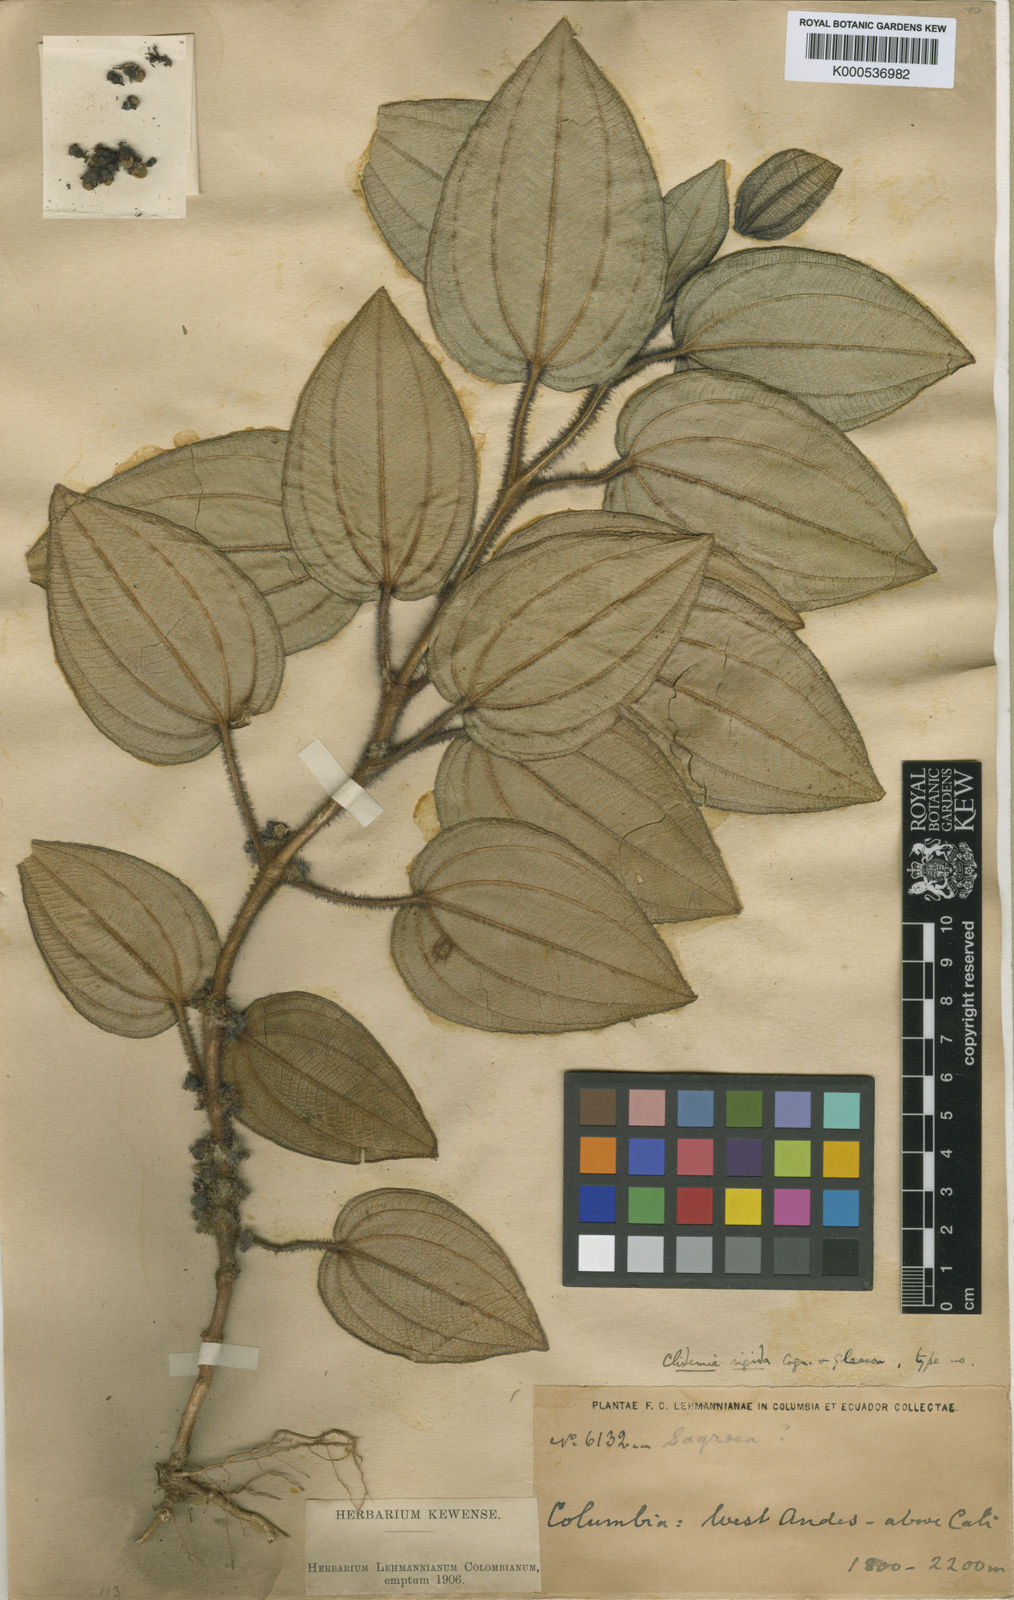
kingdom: Plantae
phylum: Tracheophyta
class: Magnoliopsida
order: Myrtales
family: Melastomataceae
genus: Miconia
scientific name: Miconia barbipetiolata
